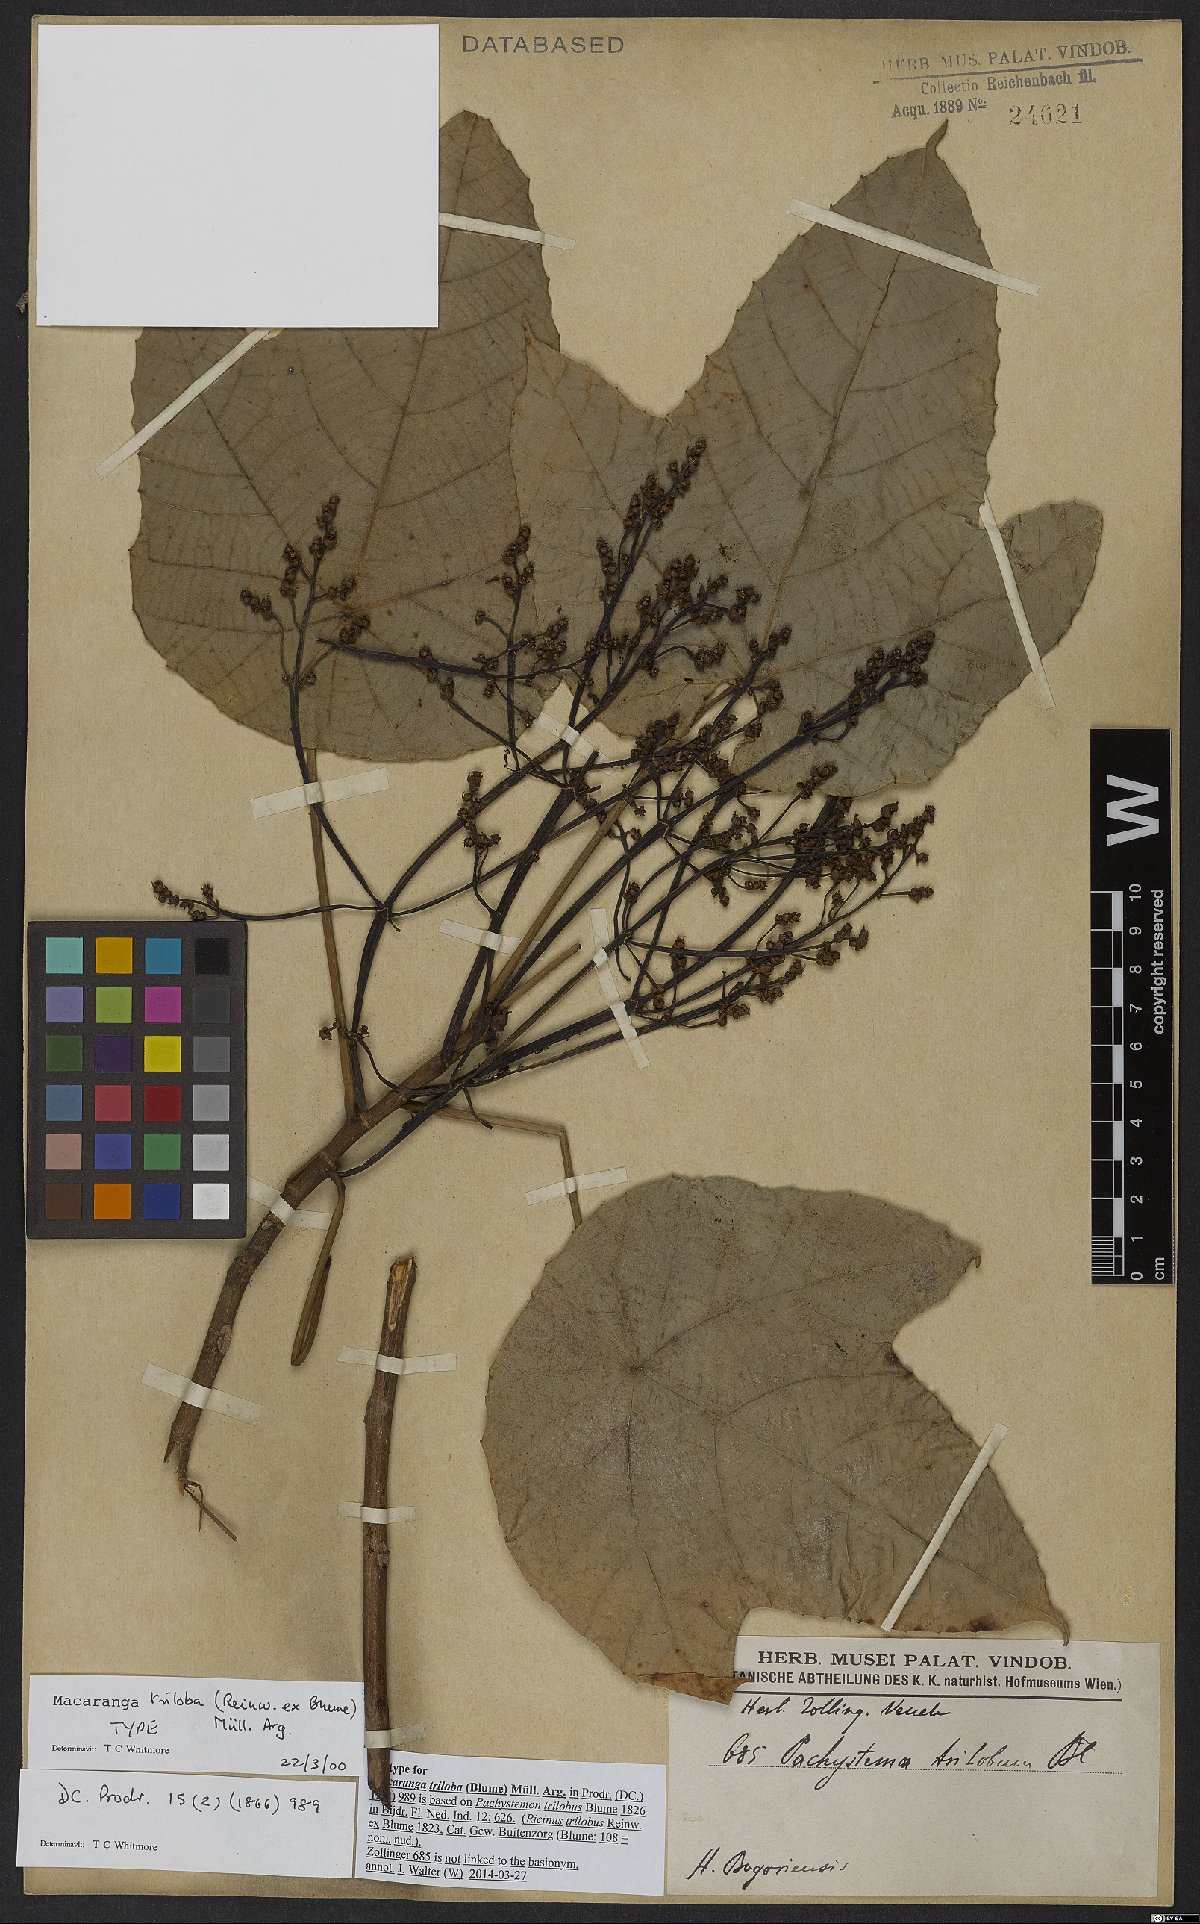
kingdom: Plantae
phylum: Tracheophyta
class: Magnoliopsida
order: Malpighiales
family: Euphorbiaceae
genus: Macaranga
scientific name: Macaranga triloba
